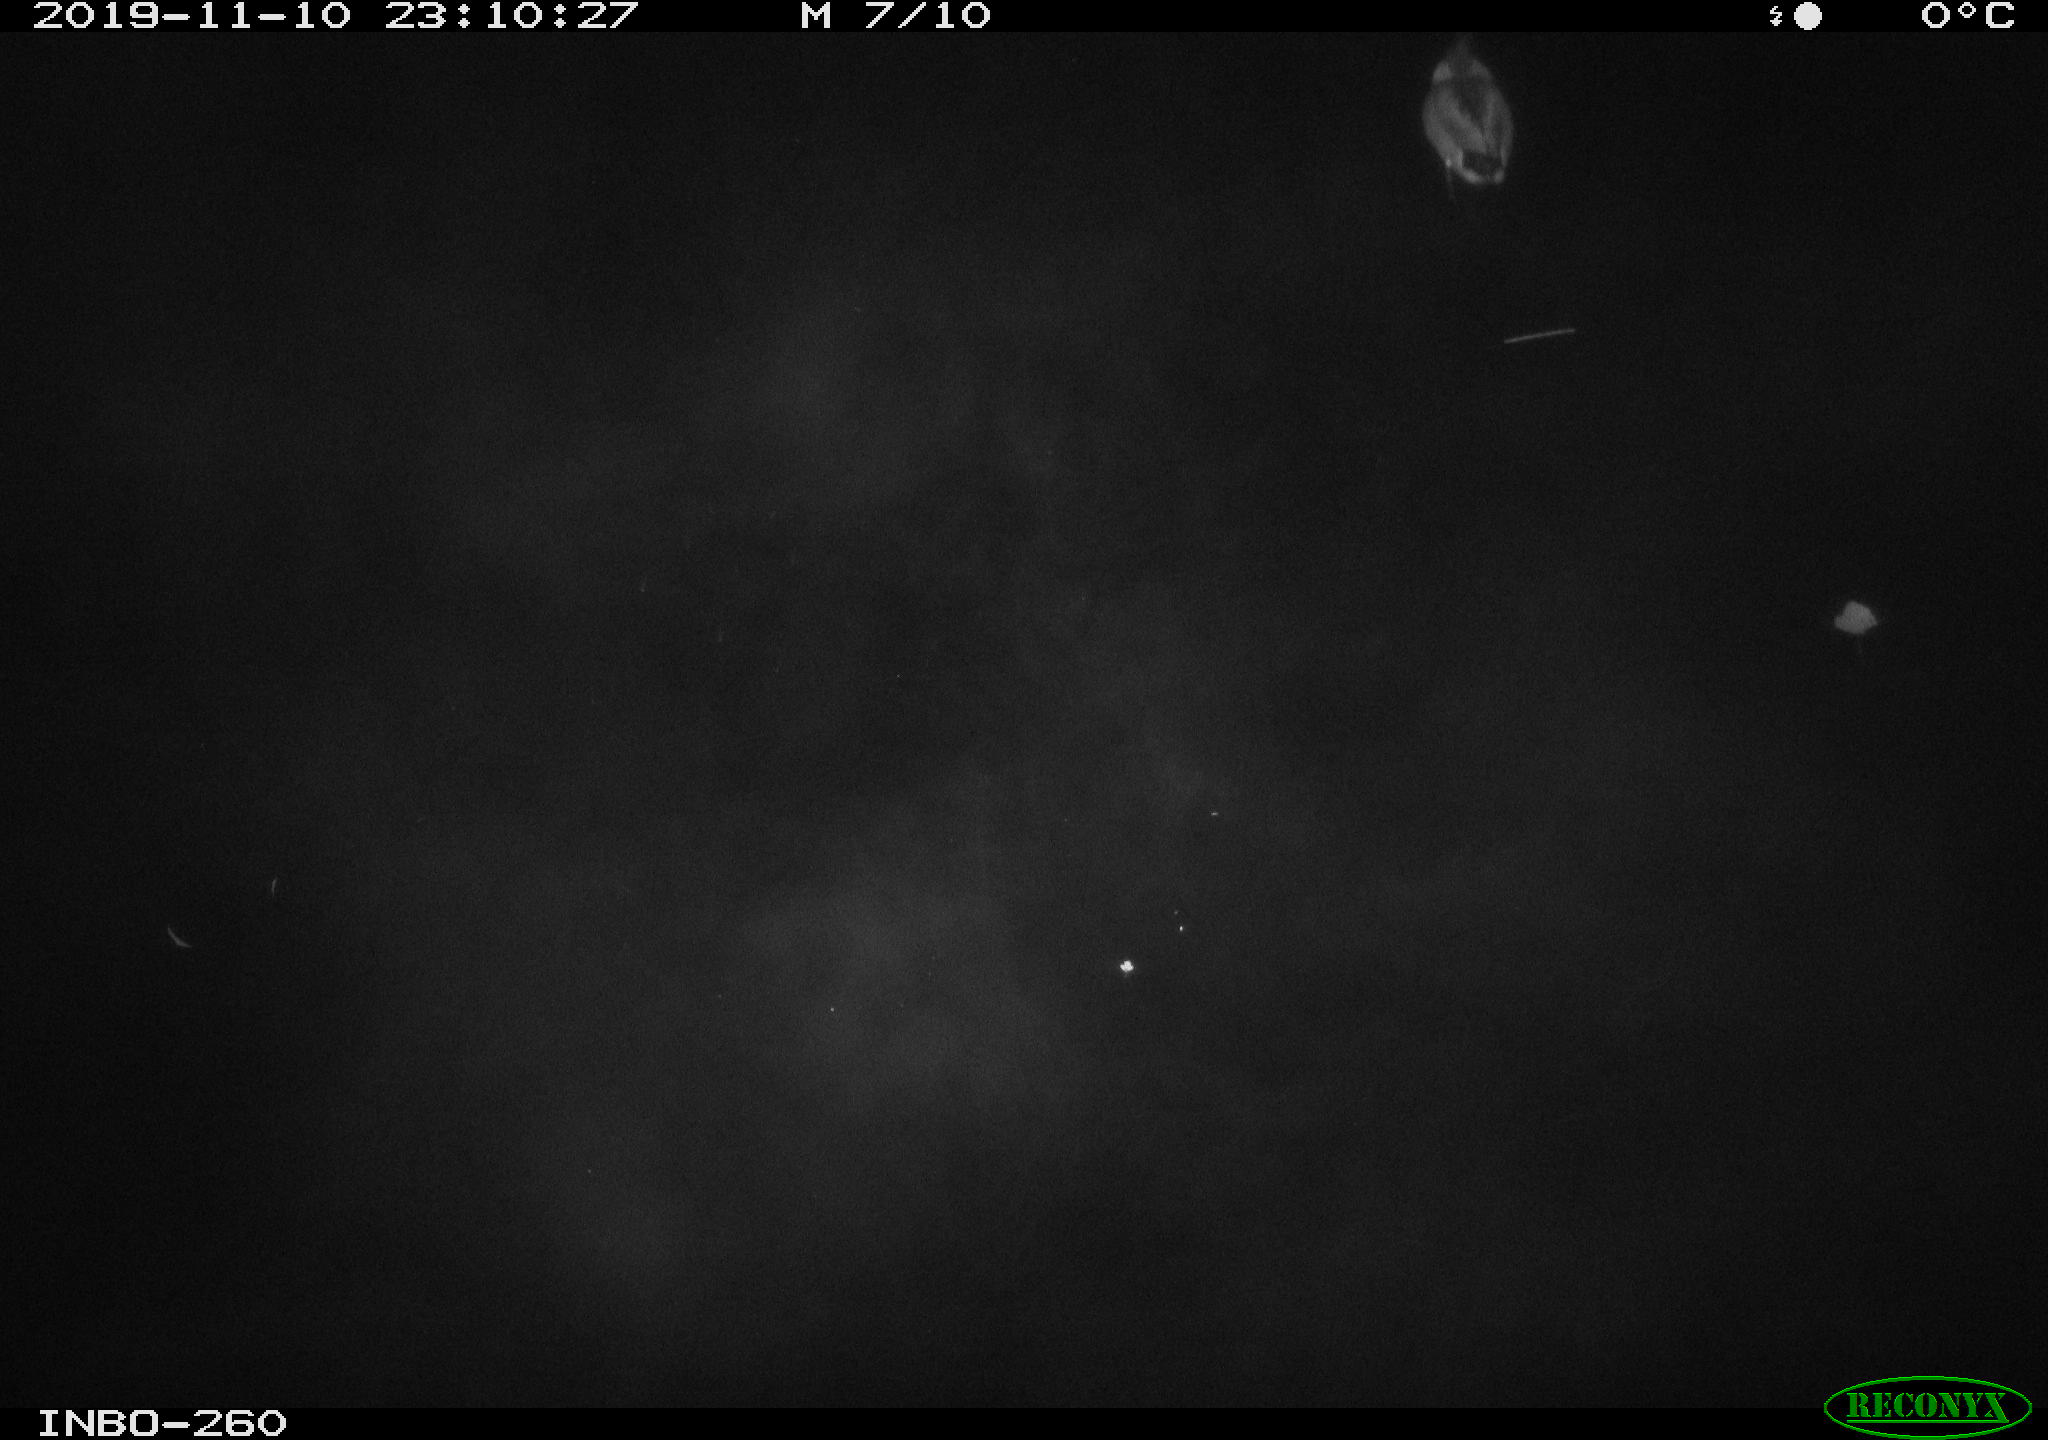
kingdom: Animalia
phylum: Chordata
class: Aves
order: Anseriformes
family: Anatidae
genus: Anas
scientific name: Anas platyrhynchos
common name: Mallard
